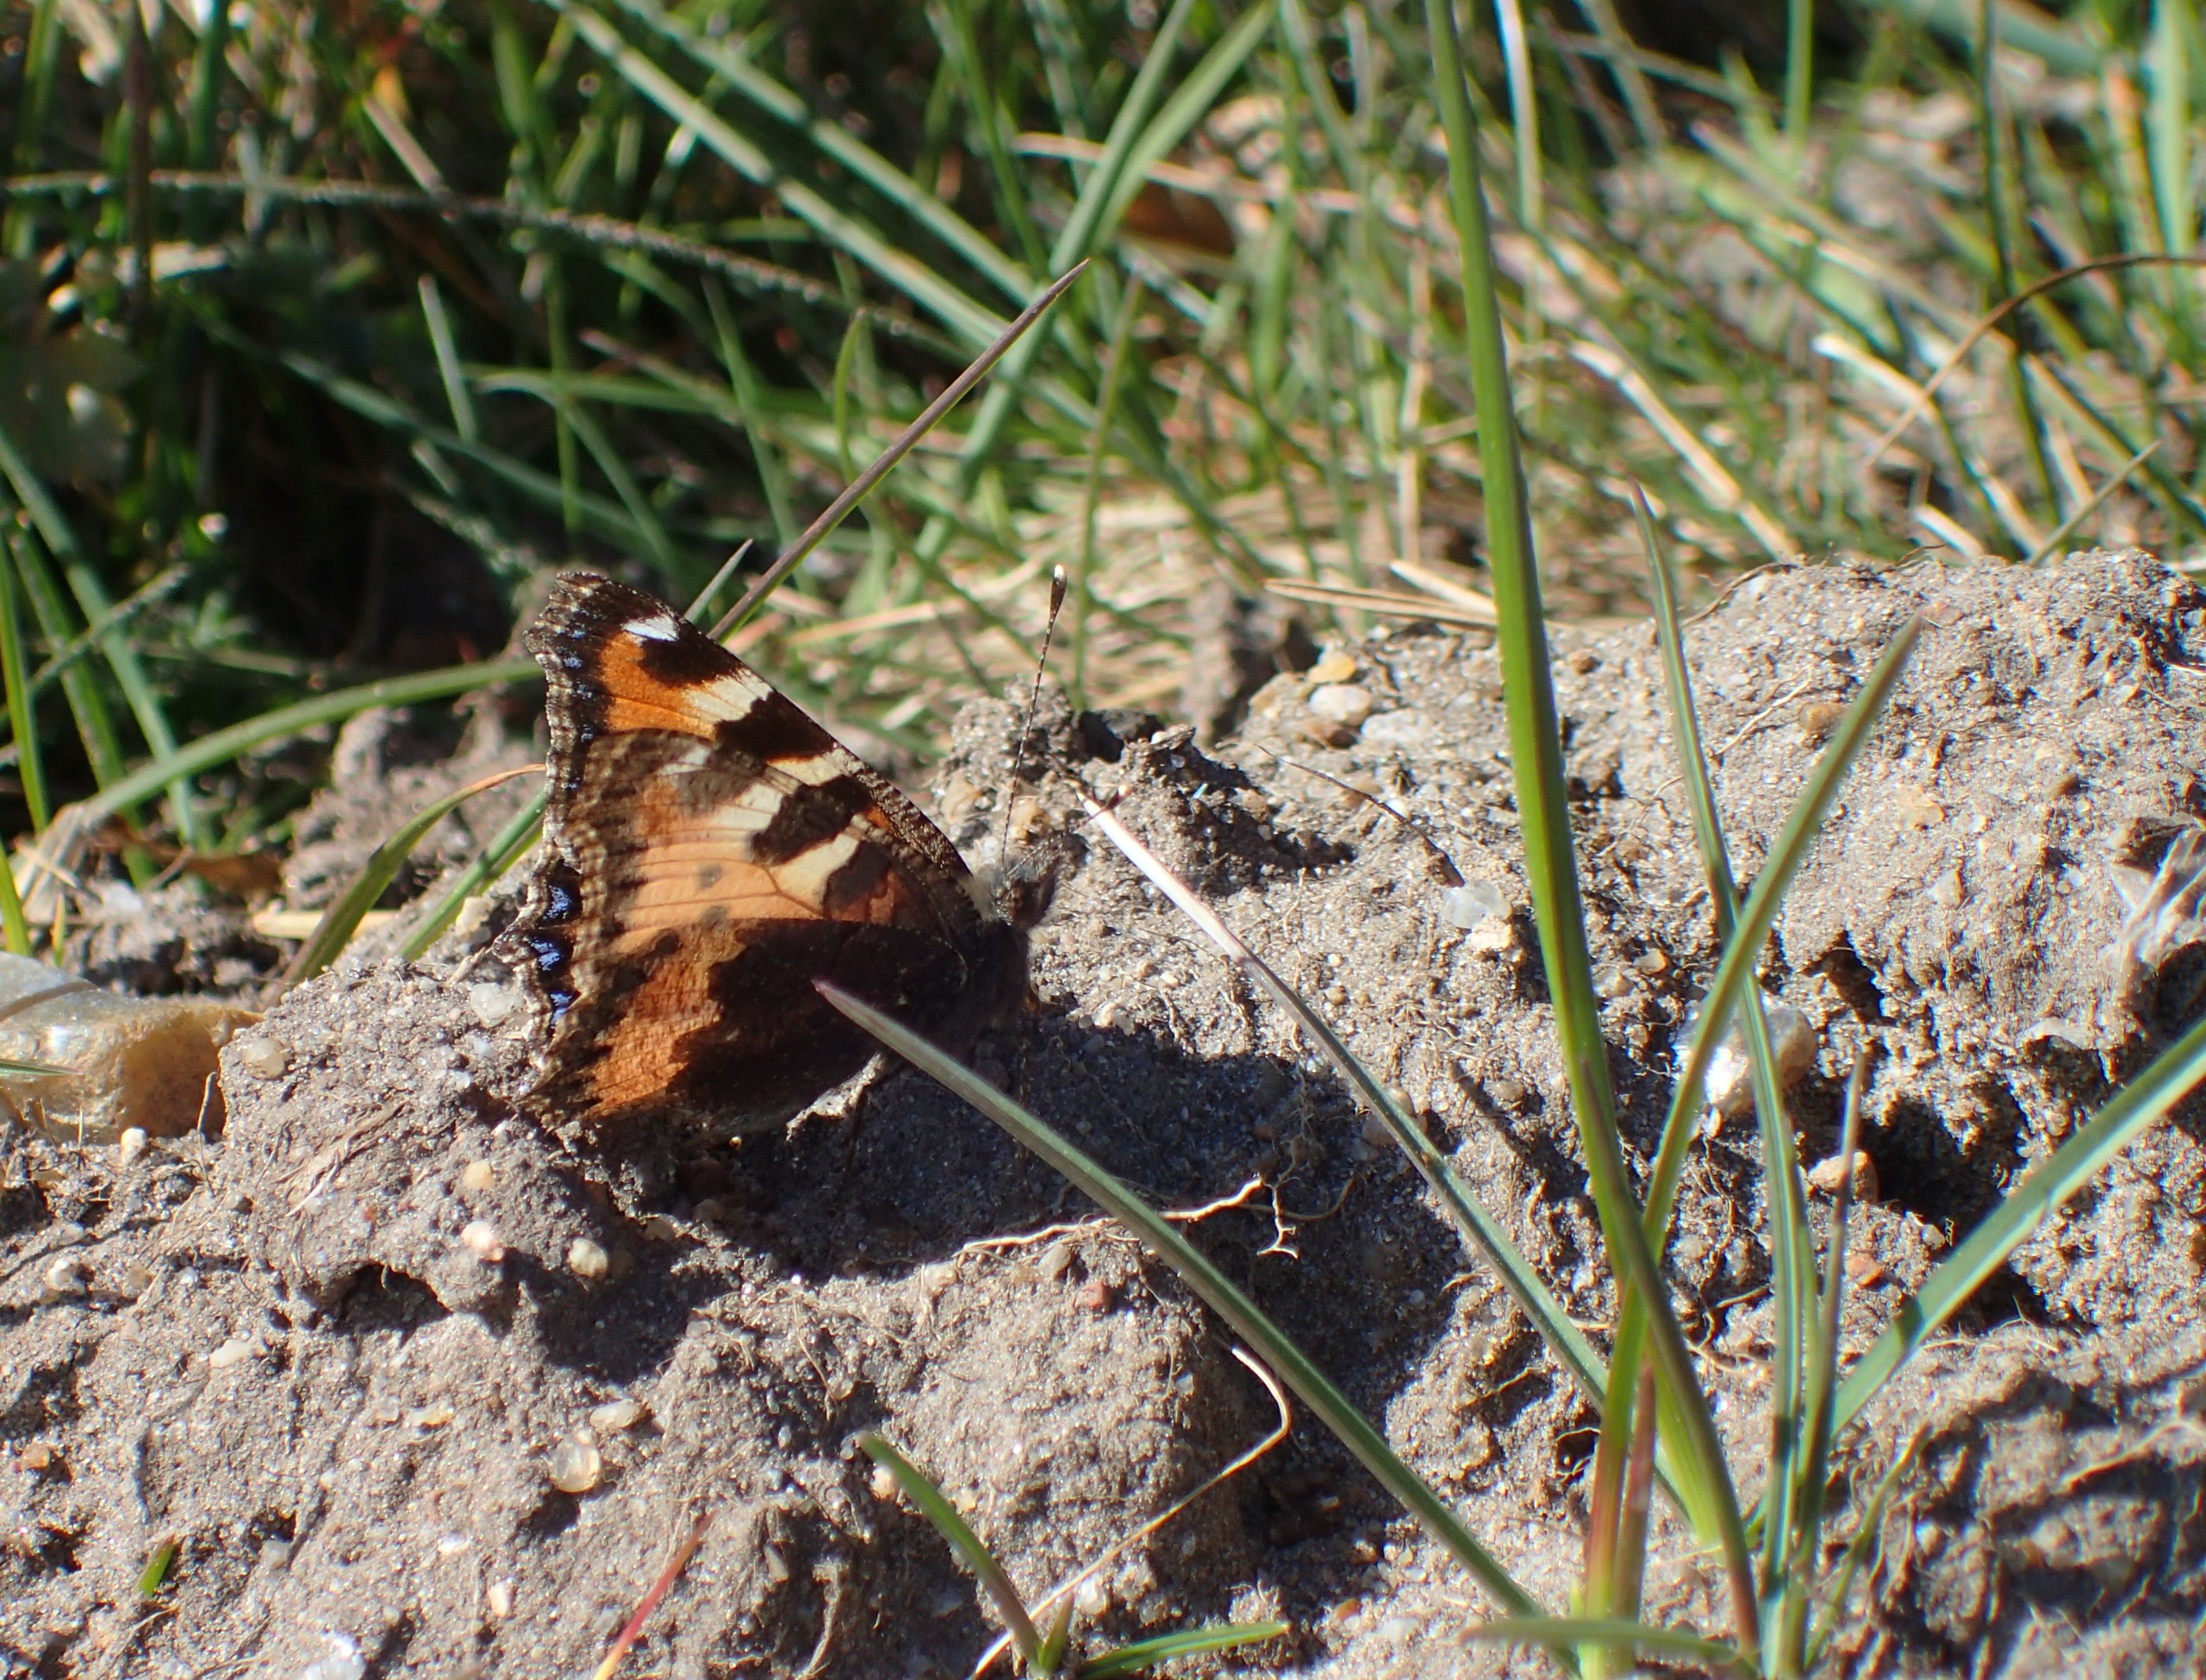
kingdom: Animalia
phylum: Arthropoda
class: Insecta
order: Lepidoptera
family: Nymphalidae
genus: Aglais
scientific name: Aglais urticae
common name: Nældens takvinge
